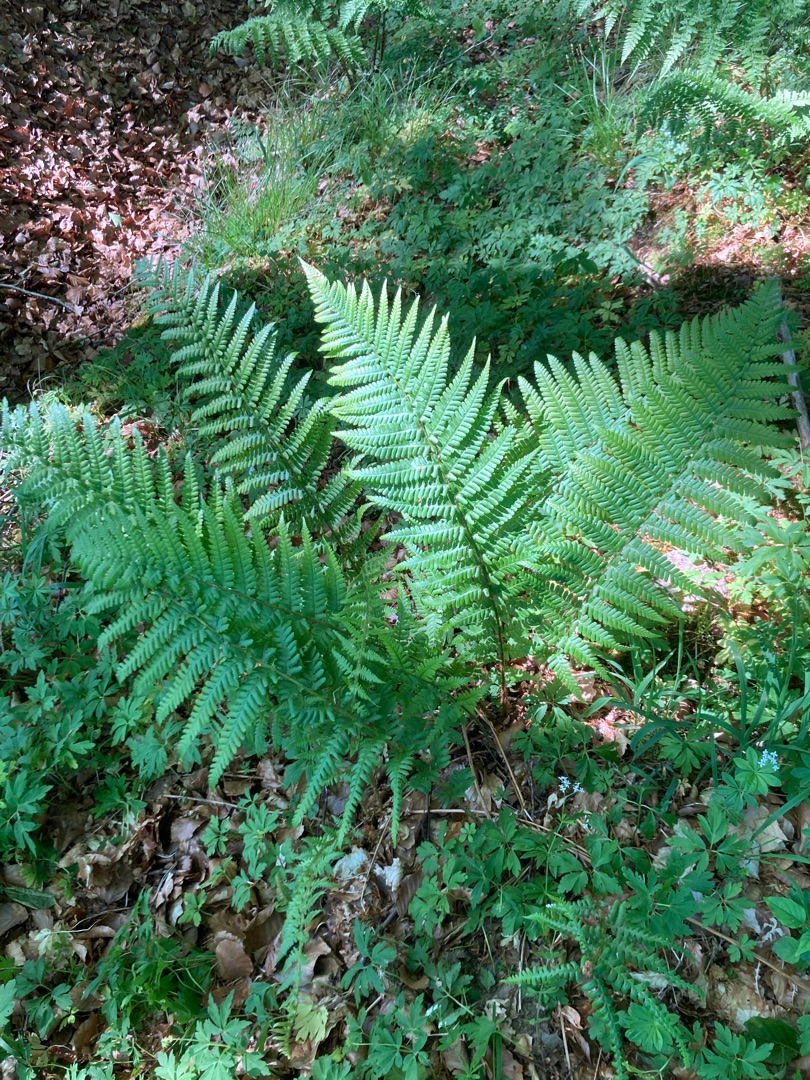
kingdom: Plantae
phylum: Tracheophyta
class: Polypodiopsida
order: Polypodiales
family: Dryopteridaceae
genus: Dryopteris
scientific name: Dryopteris filix-mas
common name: Almindelig mangeløv
